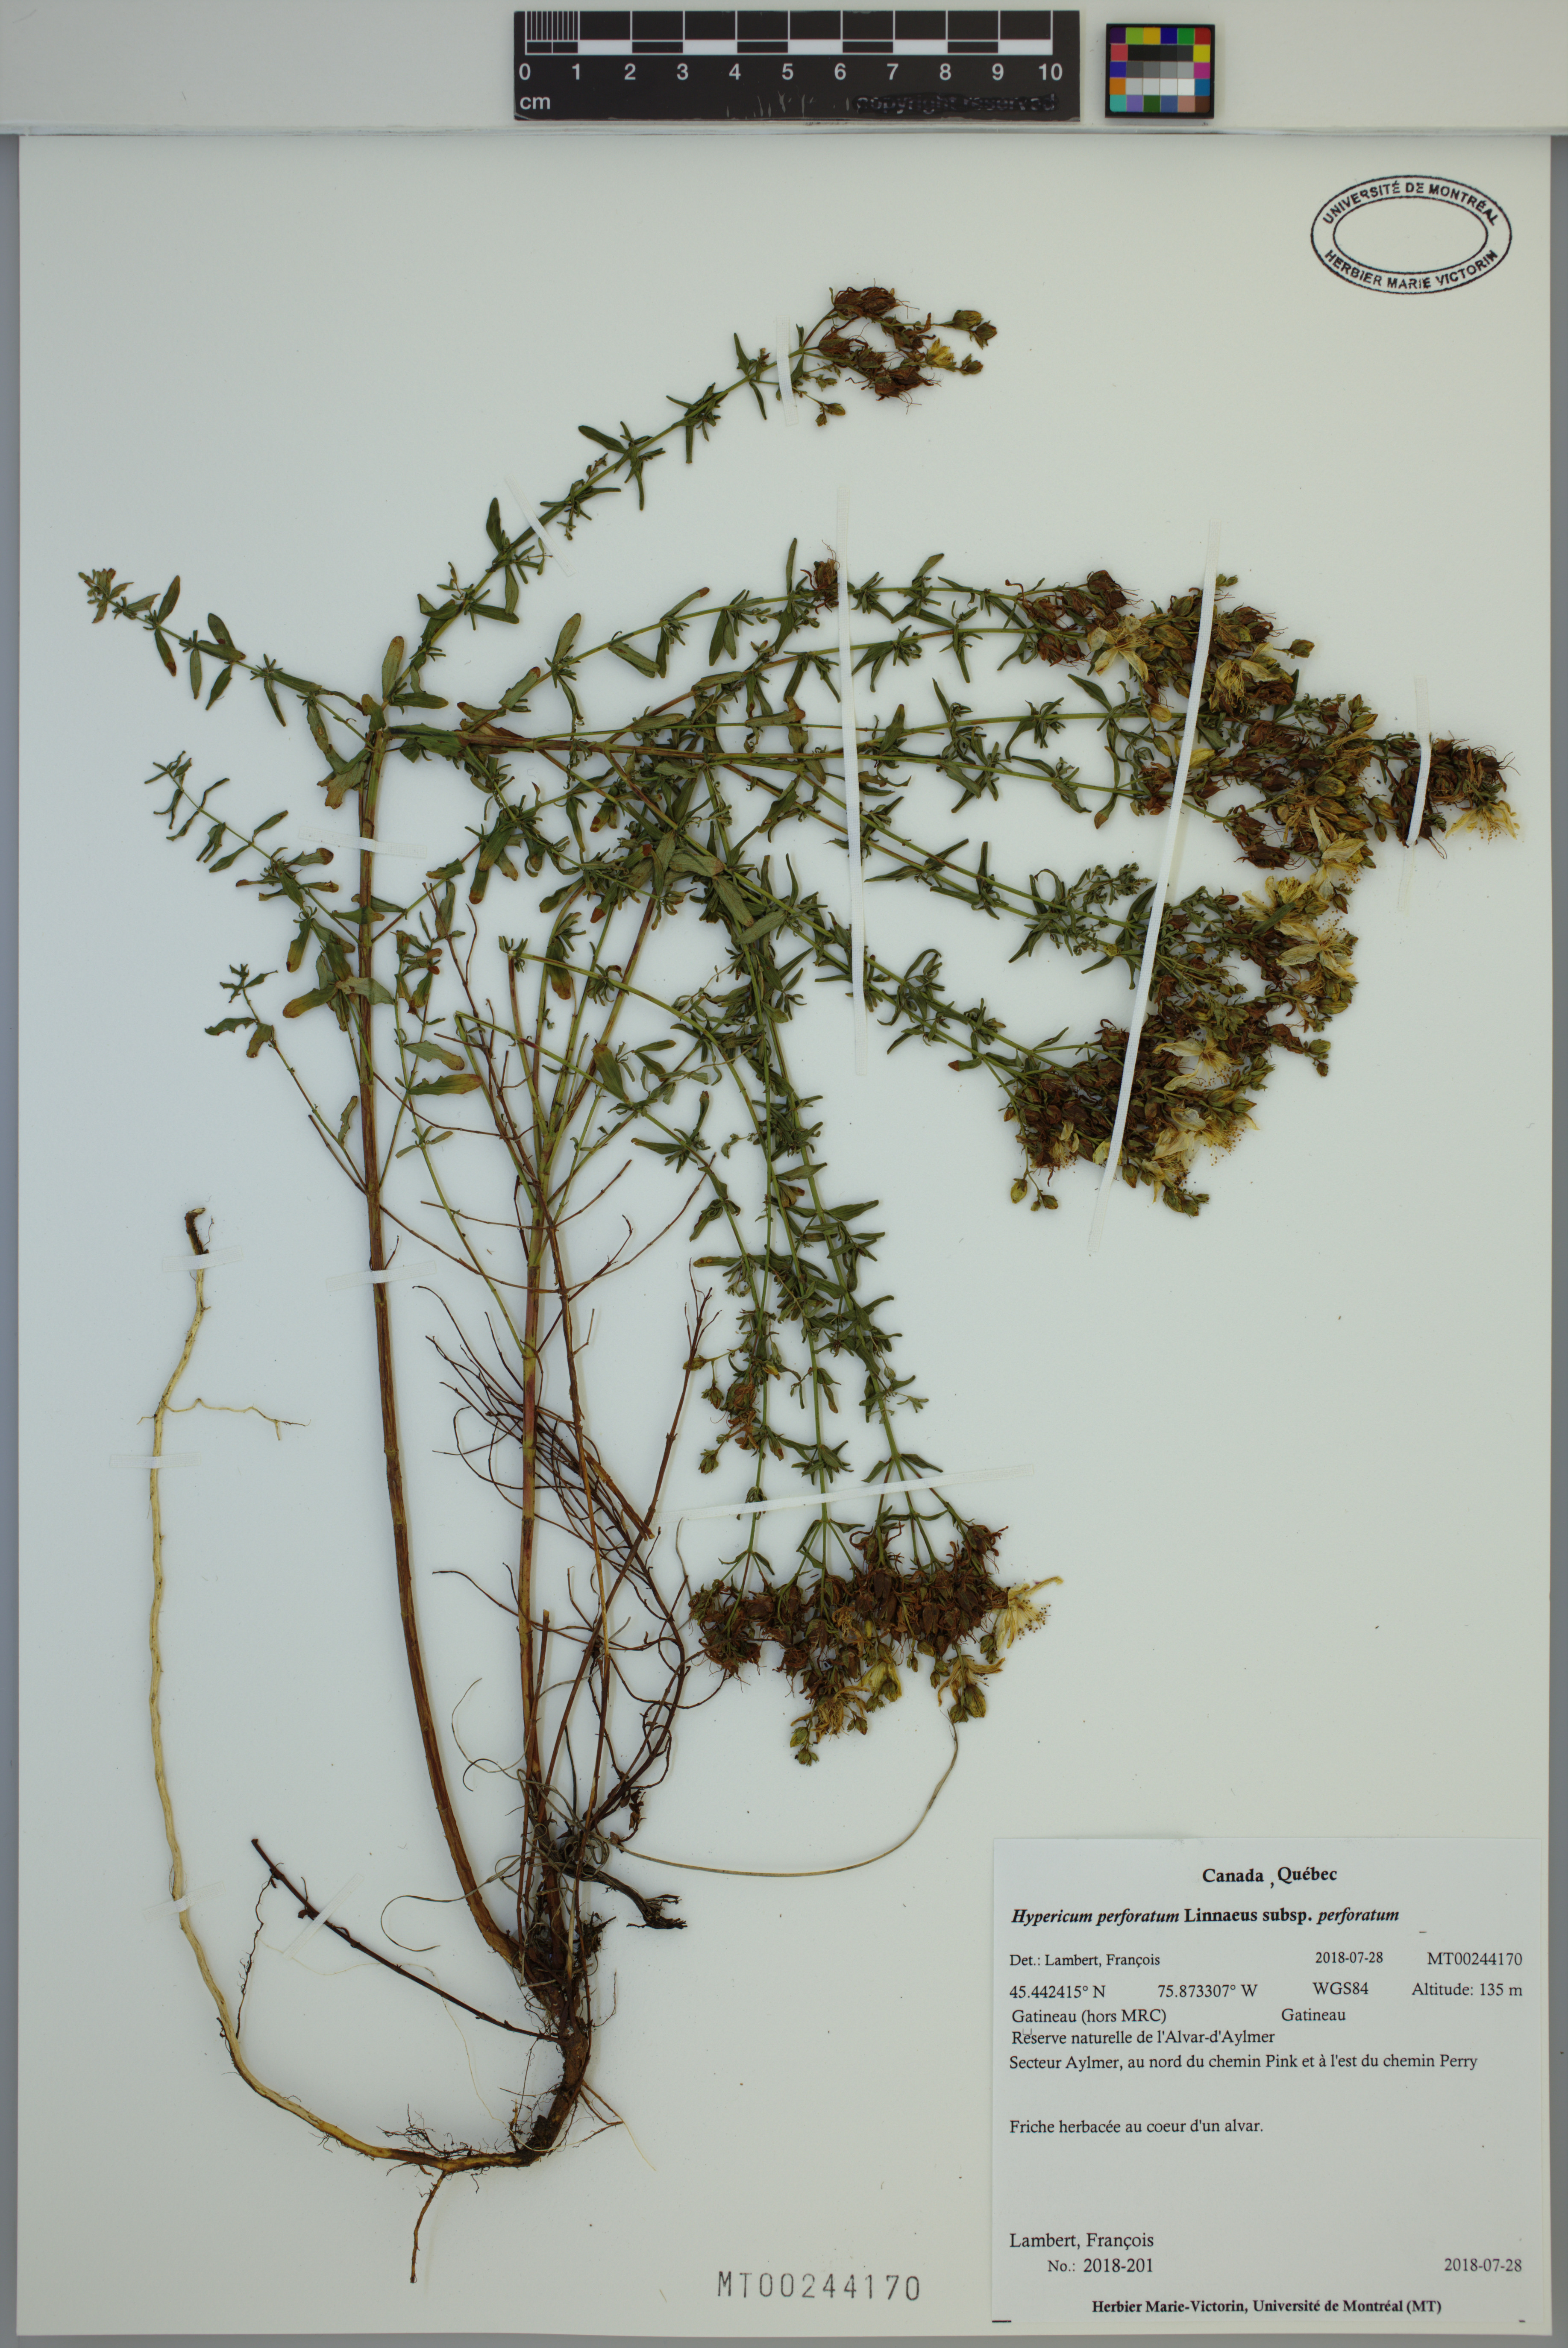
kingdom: Plantae
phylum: Tracheophyta
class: Magnoliopsida
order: Malpighiales
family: Hypericaceae
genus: Hypericum
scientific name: Hypericum perforatum
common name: Common st. johnswort
